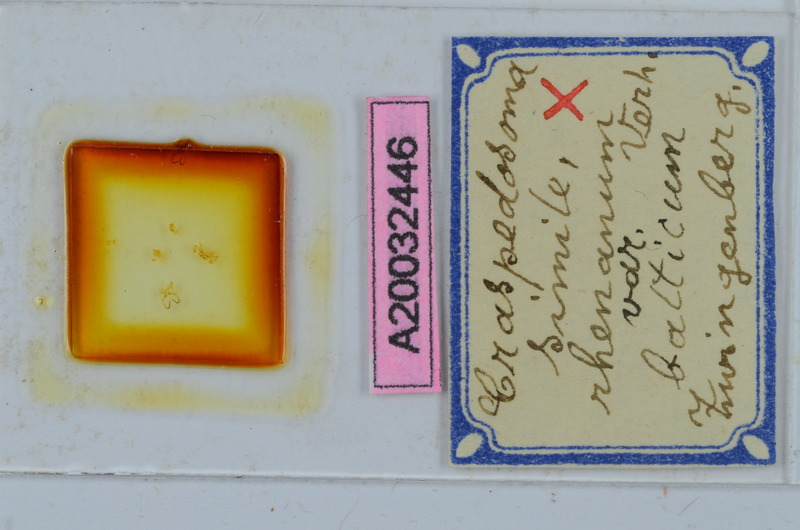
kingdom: Animalia
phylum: Arthropoda
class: Diplopoda
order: Chordeumatida
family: Craspedosomatidae
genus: Craspedosoma
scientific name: Craspedosoma rawlinsii
